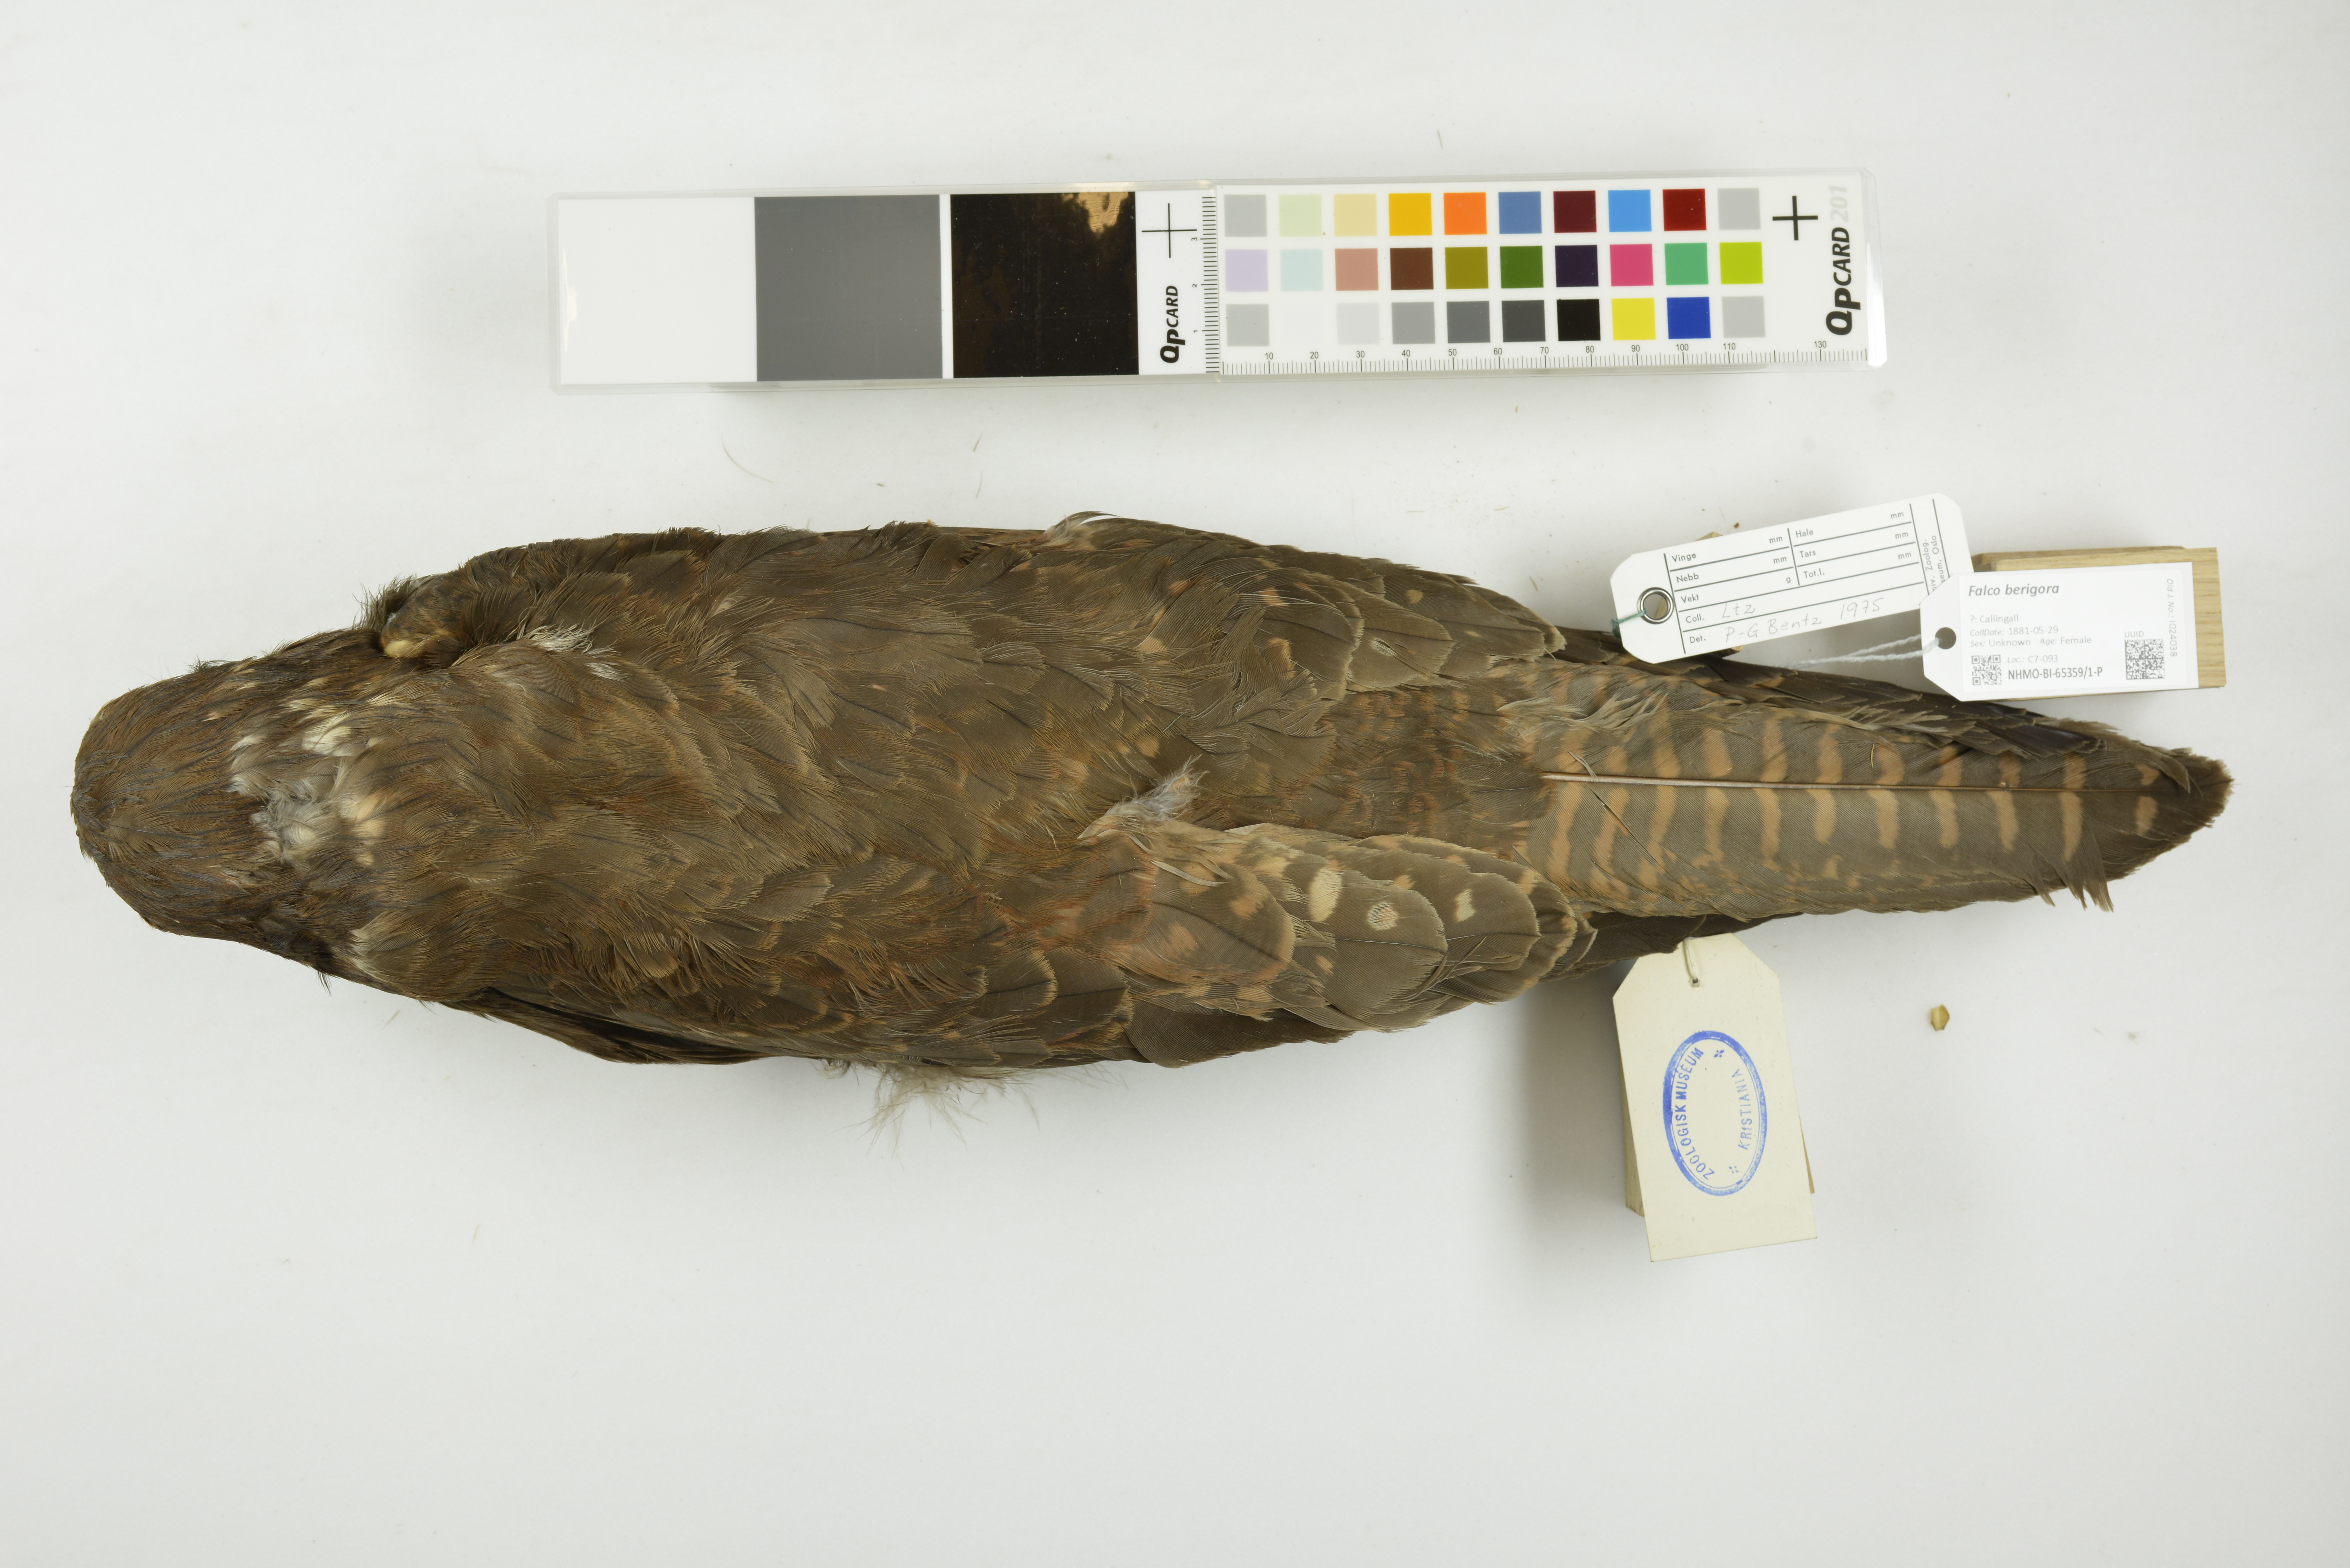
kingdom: Animalia
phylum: Chordata
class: Aves
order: Falconiformes
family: Falconidae
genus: Falco
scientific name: Falco berigora
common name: Brown falcon
